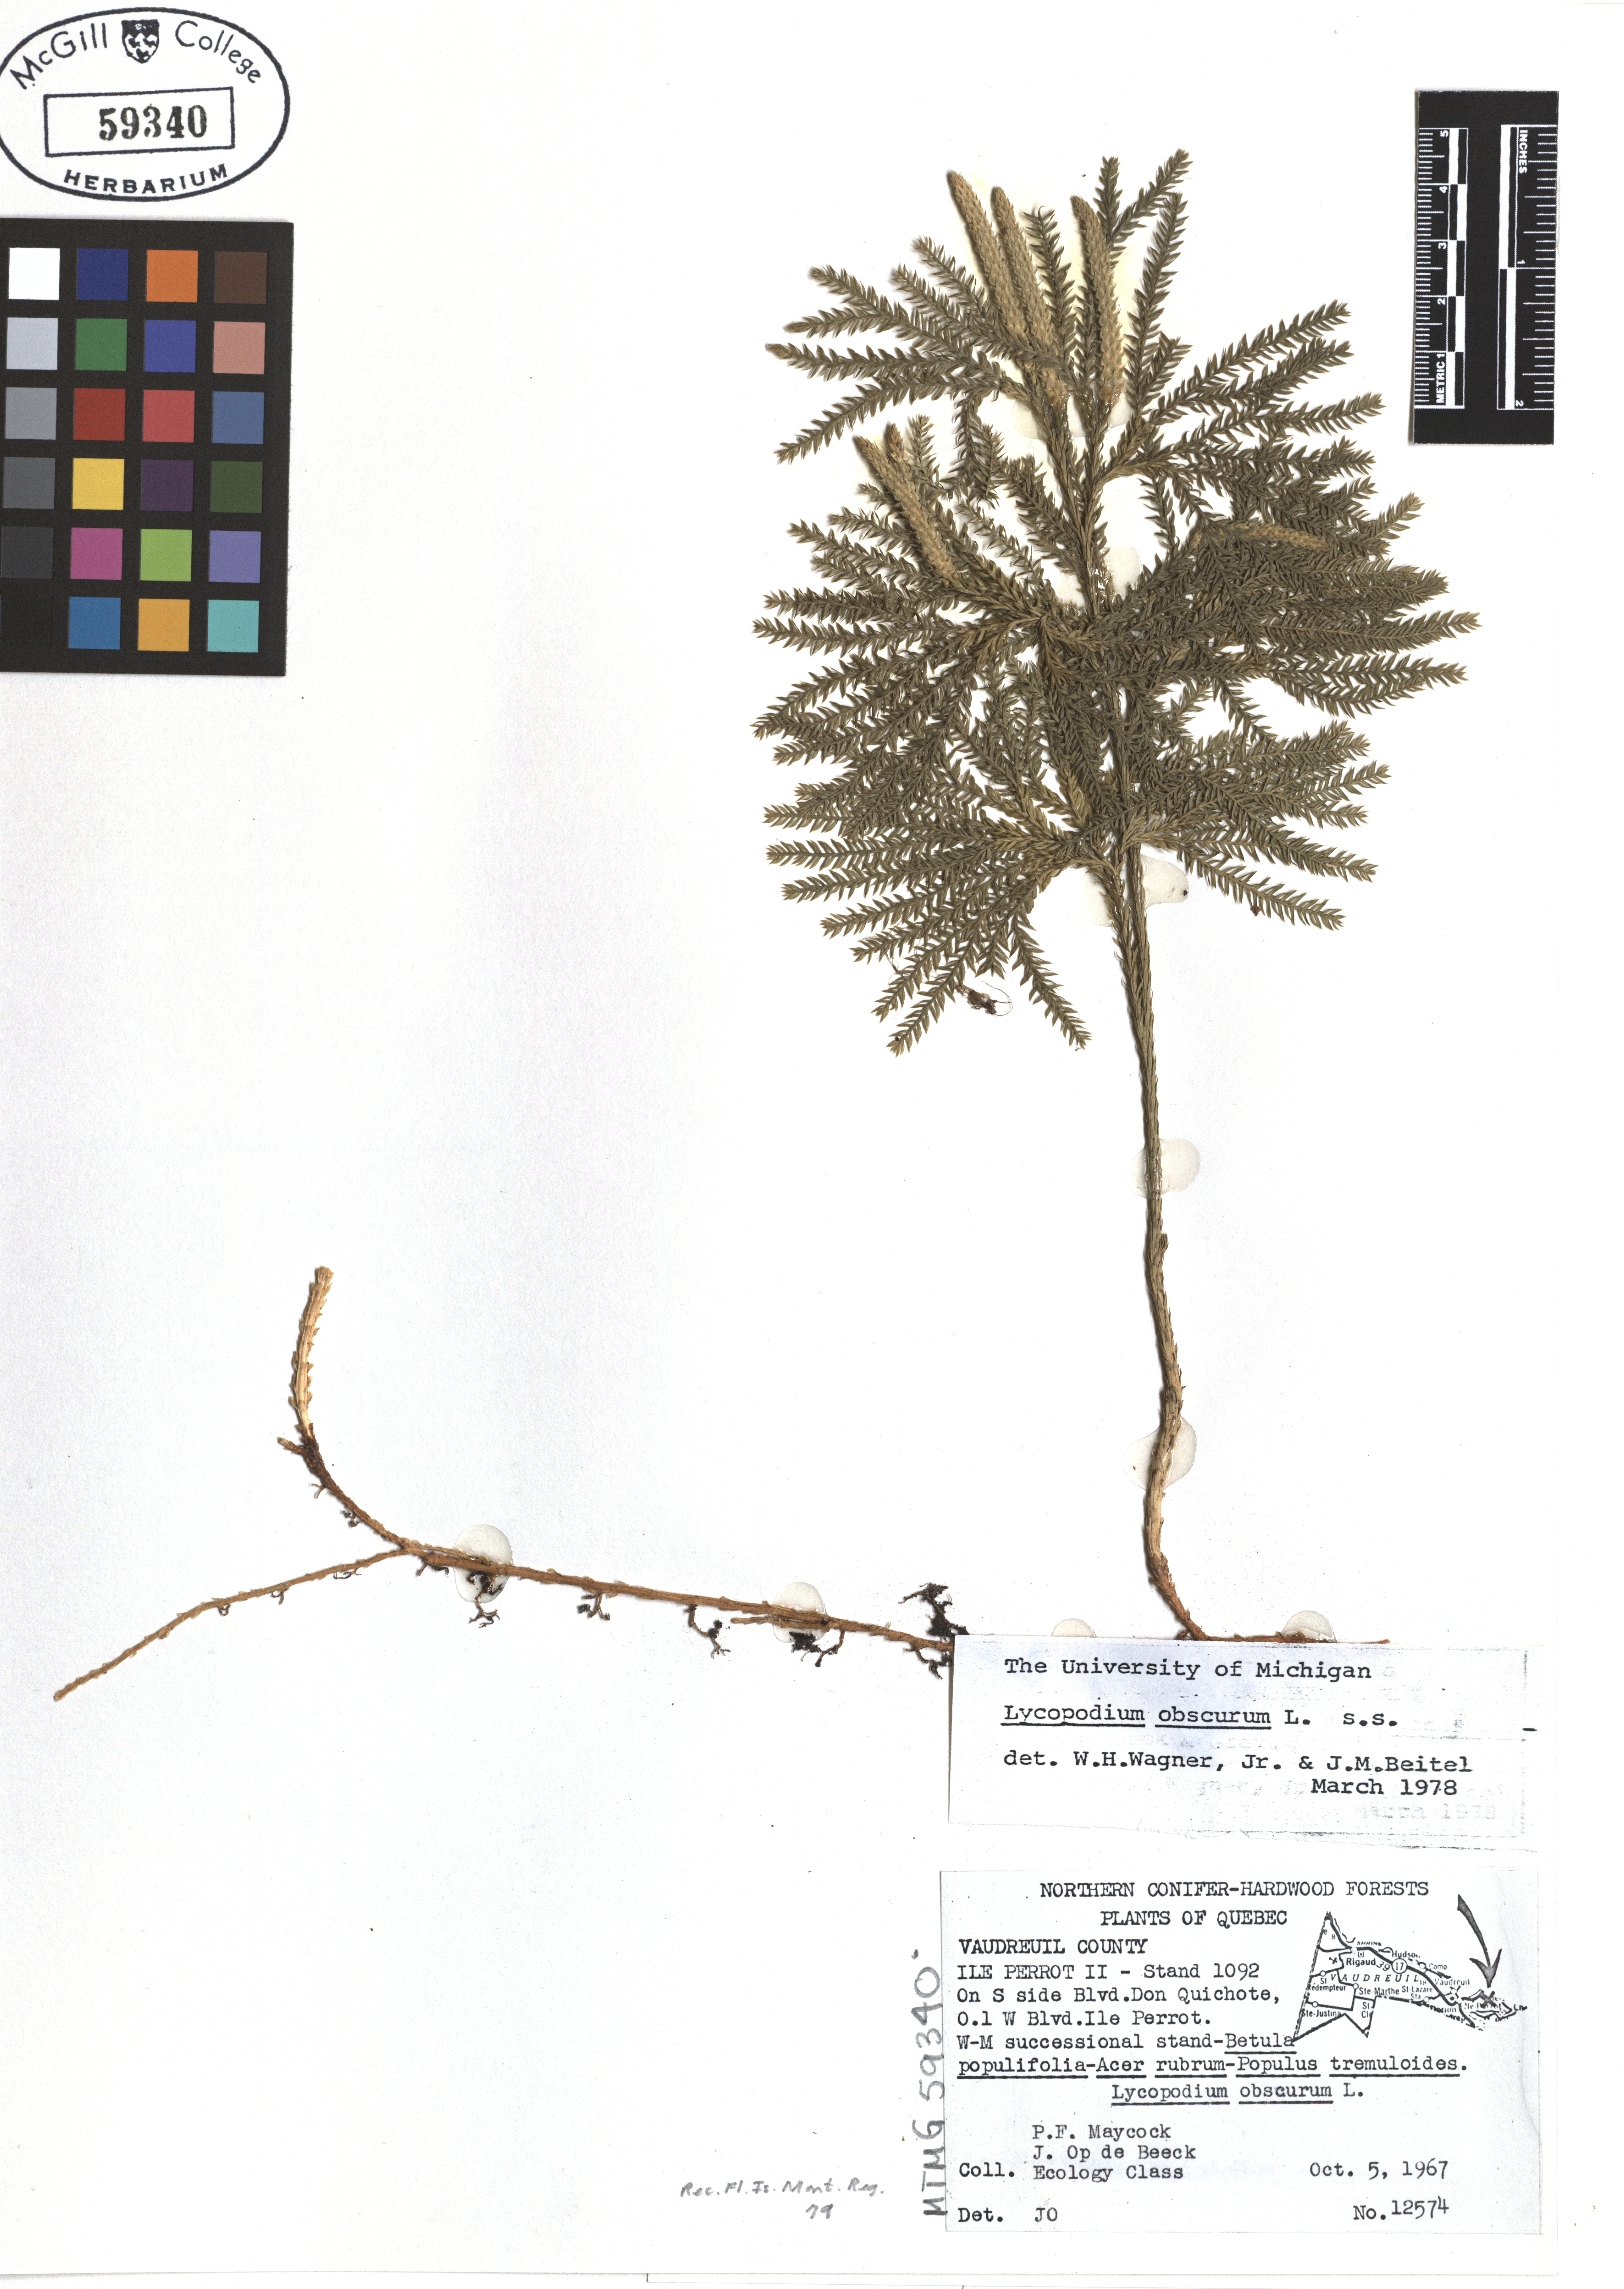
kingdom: Plantae
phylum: Tracheophyta
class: Lycopodiopsida
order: Lycopodiales
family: Lycopodiaceae
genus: Dendrolycopodium
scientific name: Dendrolycopodium obscurum
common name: Common ground-pine
